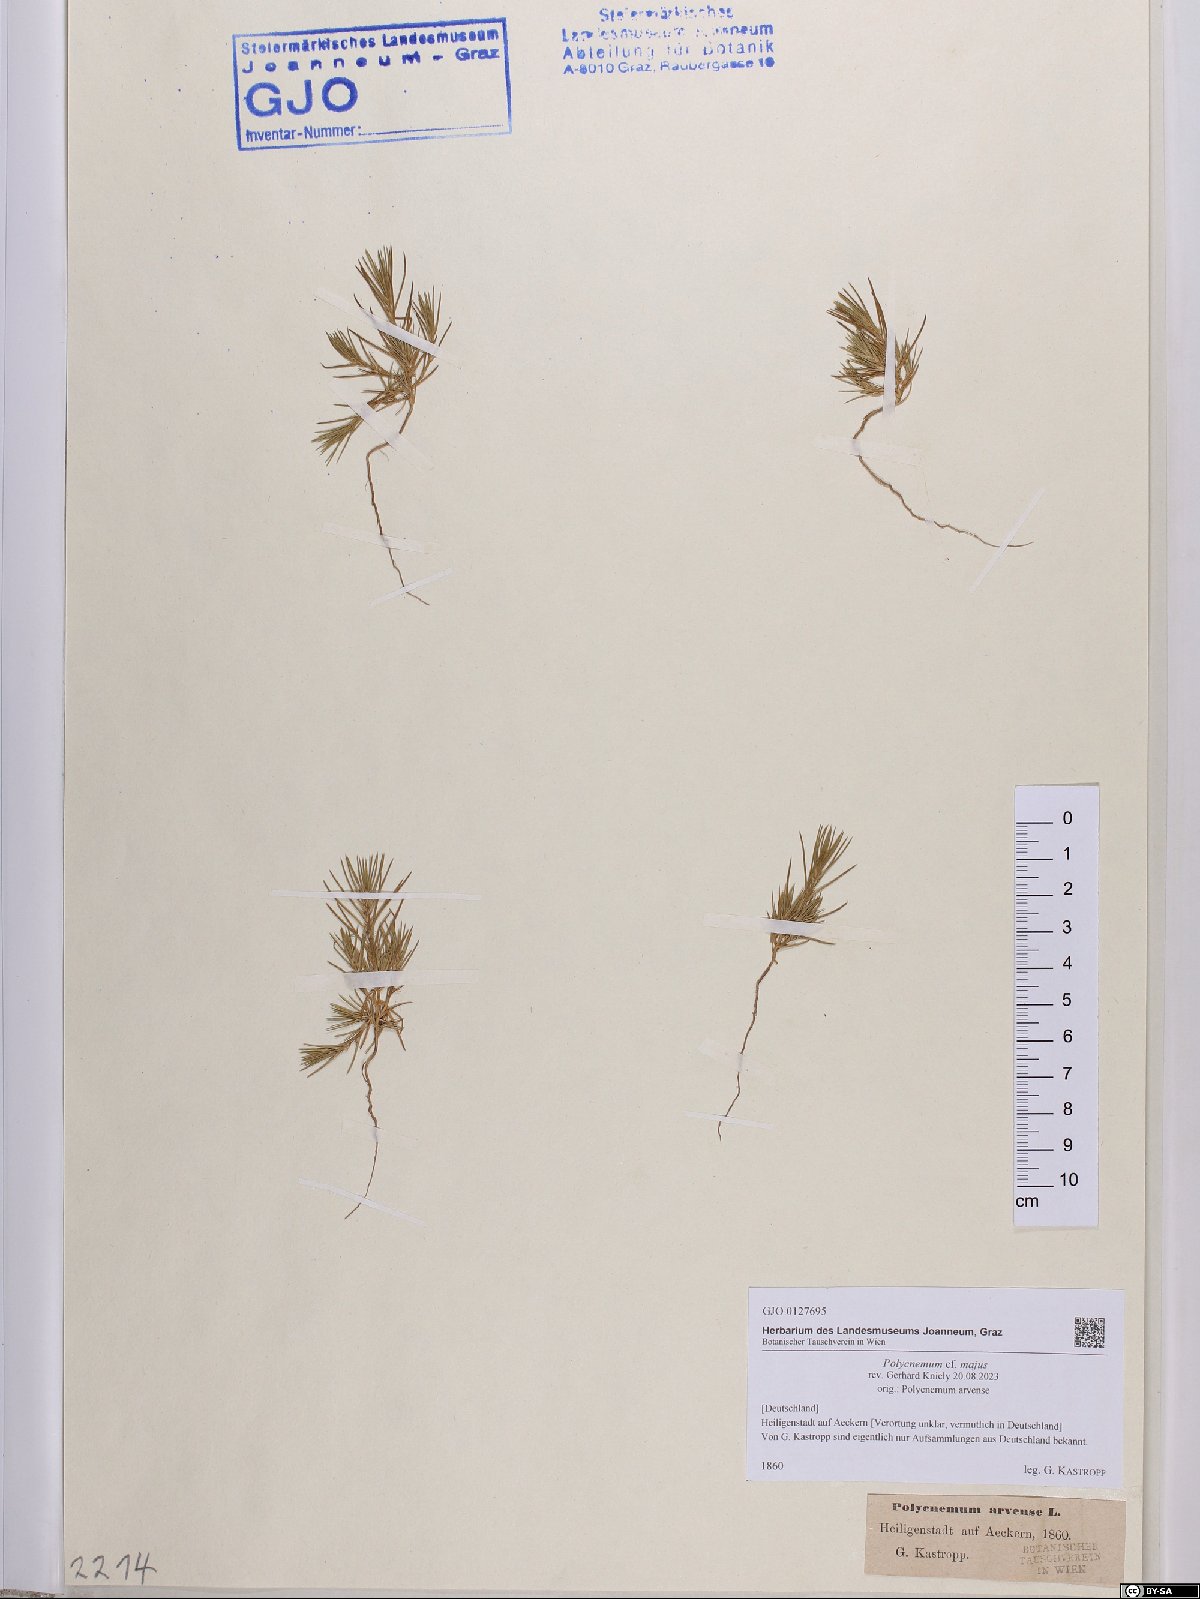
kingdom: Plantae
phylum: Tracheophyta
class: Magnoliopsida
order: Caryophyllales
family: Amaranthaceae
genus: Polycnemum
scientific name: Polycnemum majus
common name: Giant needleleaf
